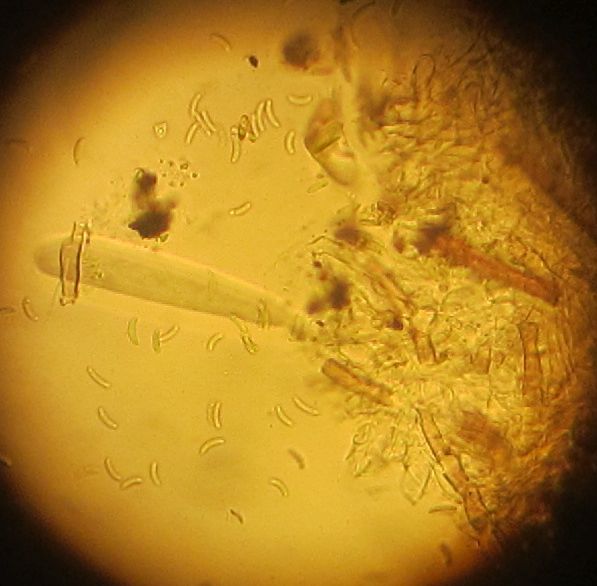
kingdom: Fungi
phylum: Ascomycota
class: Sordariomycetes
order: Xylariales
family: Xylariaceae
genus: Rosellinia
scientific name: Rosellinia
